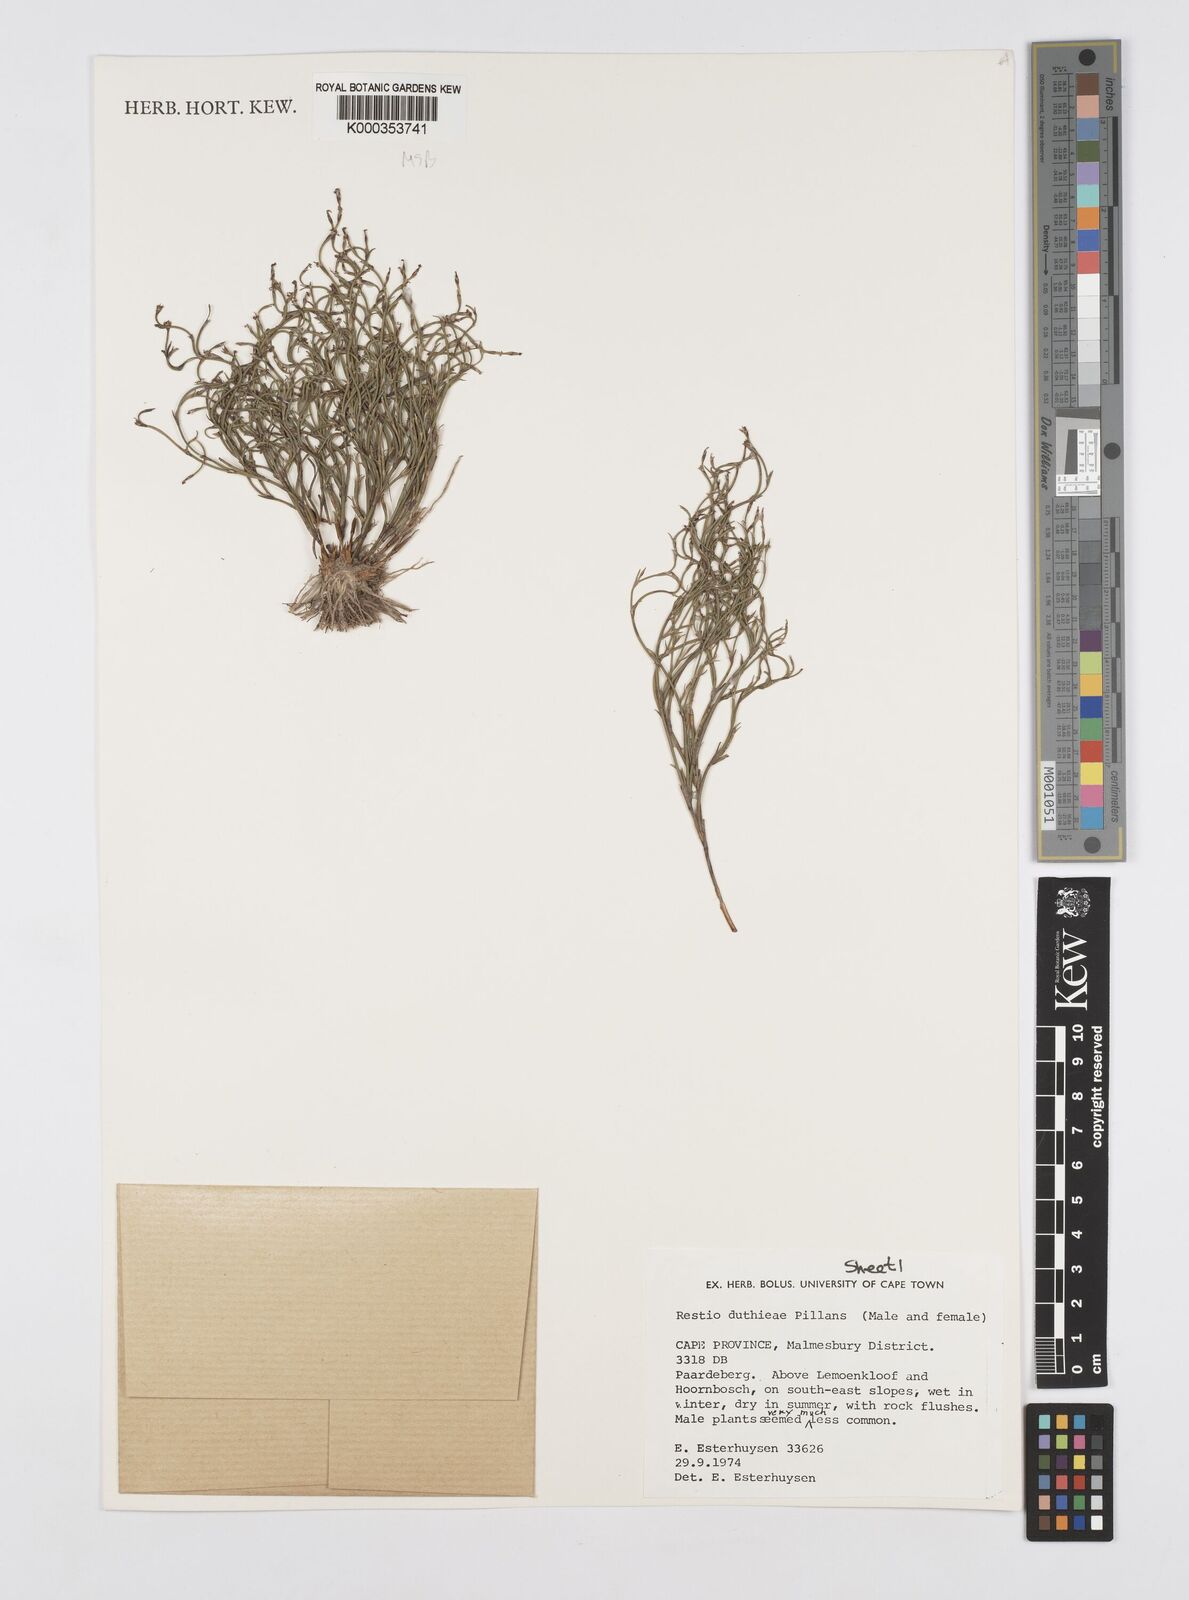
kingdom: Plantae
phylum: Tracheophyta
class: Liliopsida
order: Poales
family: Restionaceae
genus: Restio
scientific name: Restio duthieae
